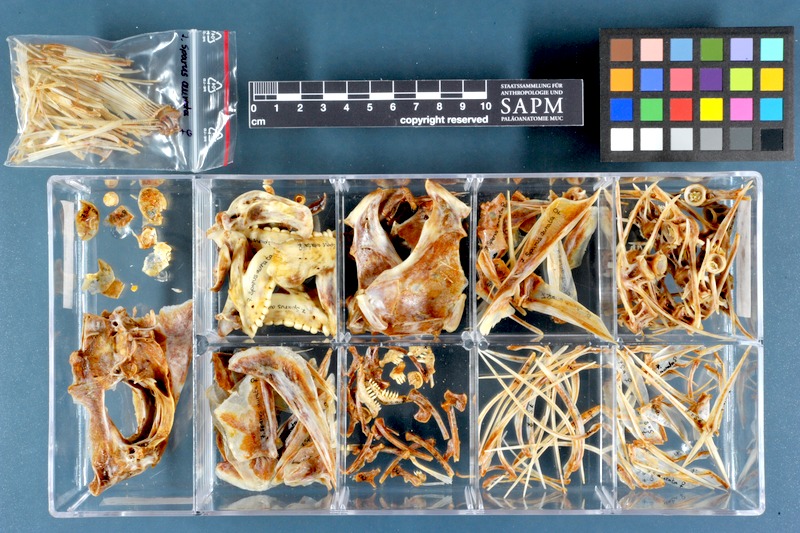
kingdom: Animalia
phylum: Chordata
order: Perciformes
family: Sparidae
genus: Sparus
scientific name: Sparus aurata
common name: Gilthead
